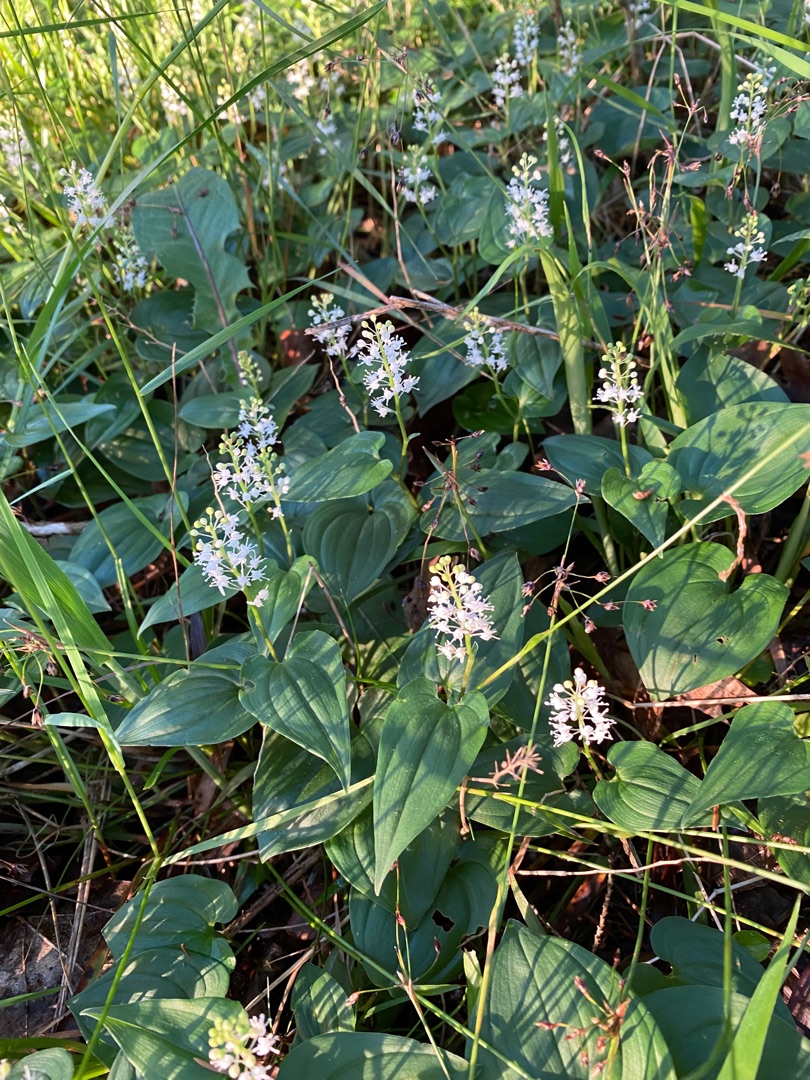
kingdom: Plantae
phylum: Tracheophyta
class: Liliopsida
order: Asparagales
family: Asparagaceae
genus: Maianthemum
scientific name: Maianthemum bifolium
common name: Majblomst
